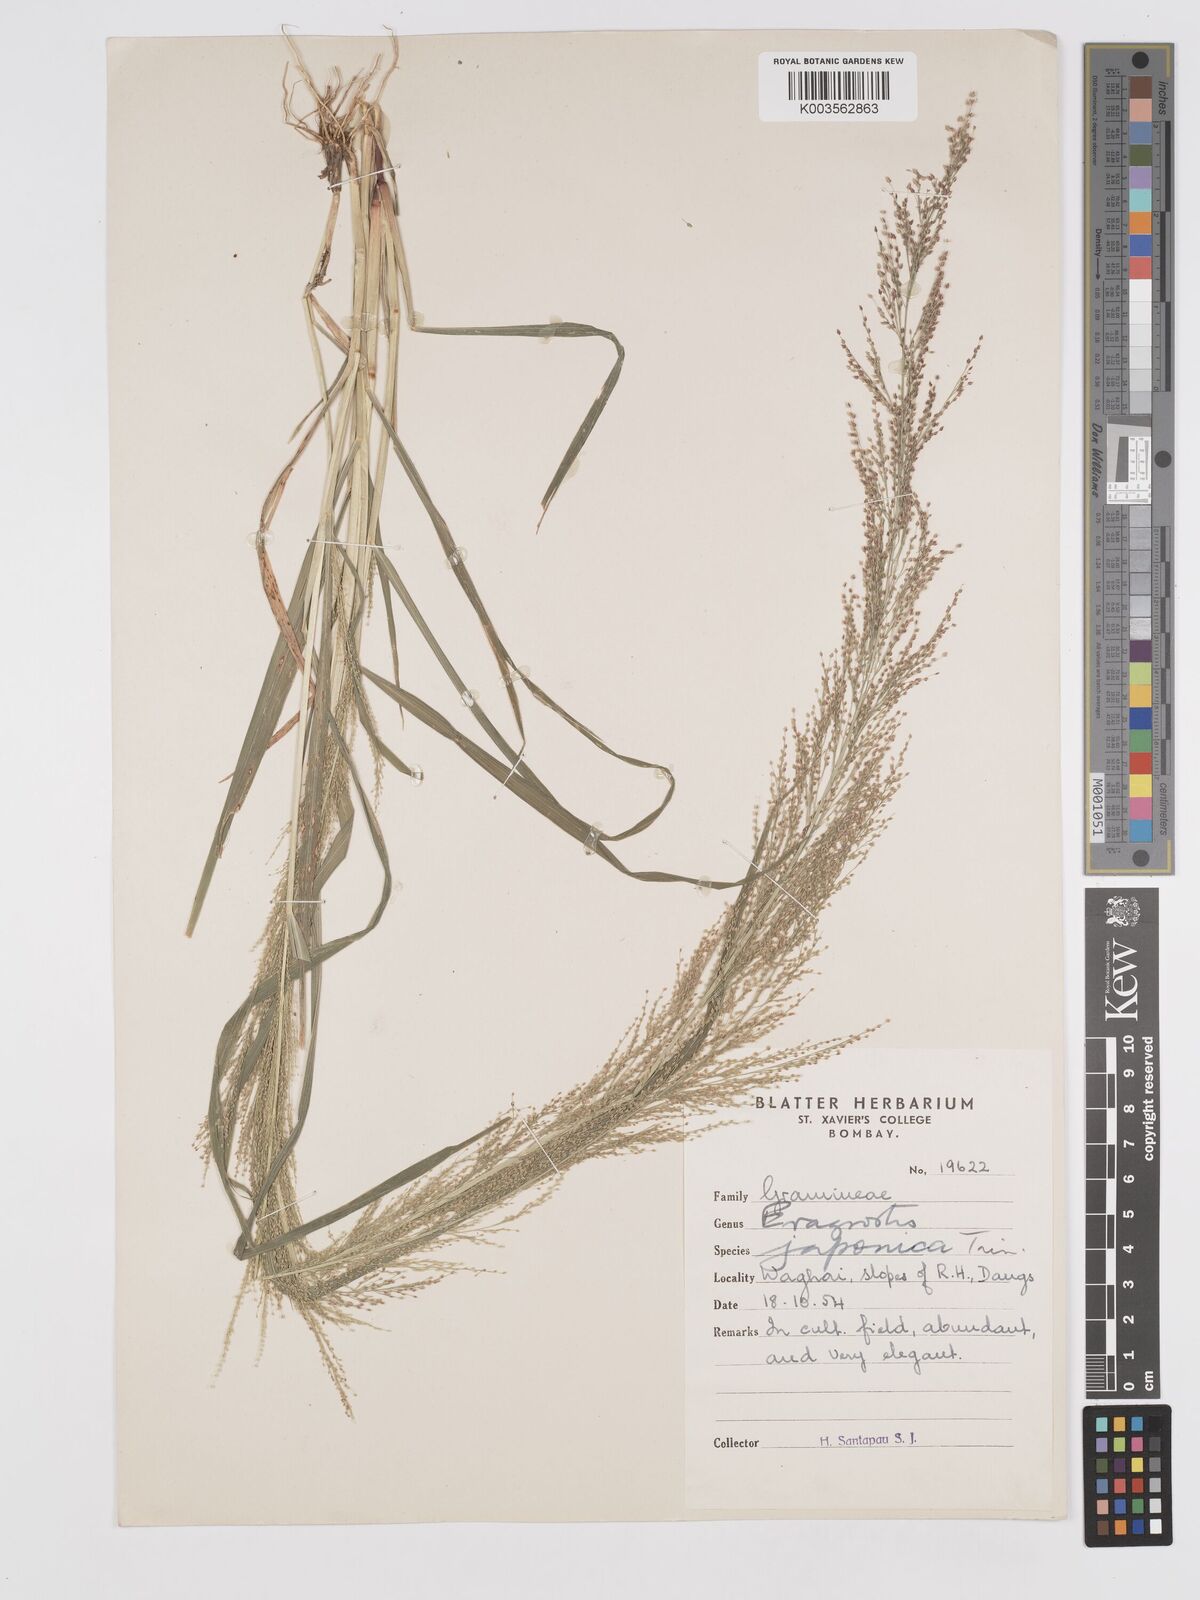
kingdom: Plantae
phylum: Tracheophyta
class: Liliopsida
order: Poales
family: Poaceae
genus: Eragrostis
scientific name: Eragrostis japonica
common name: Pond lovegrass
